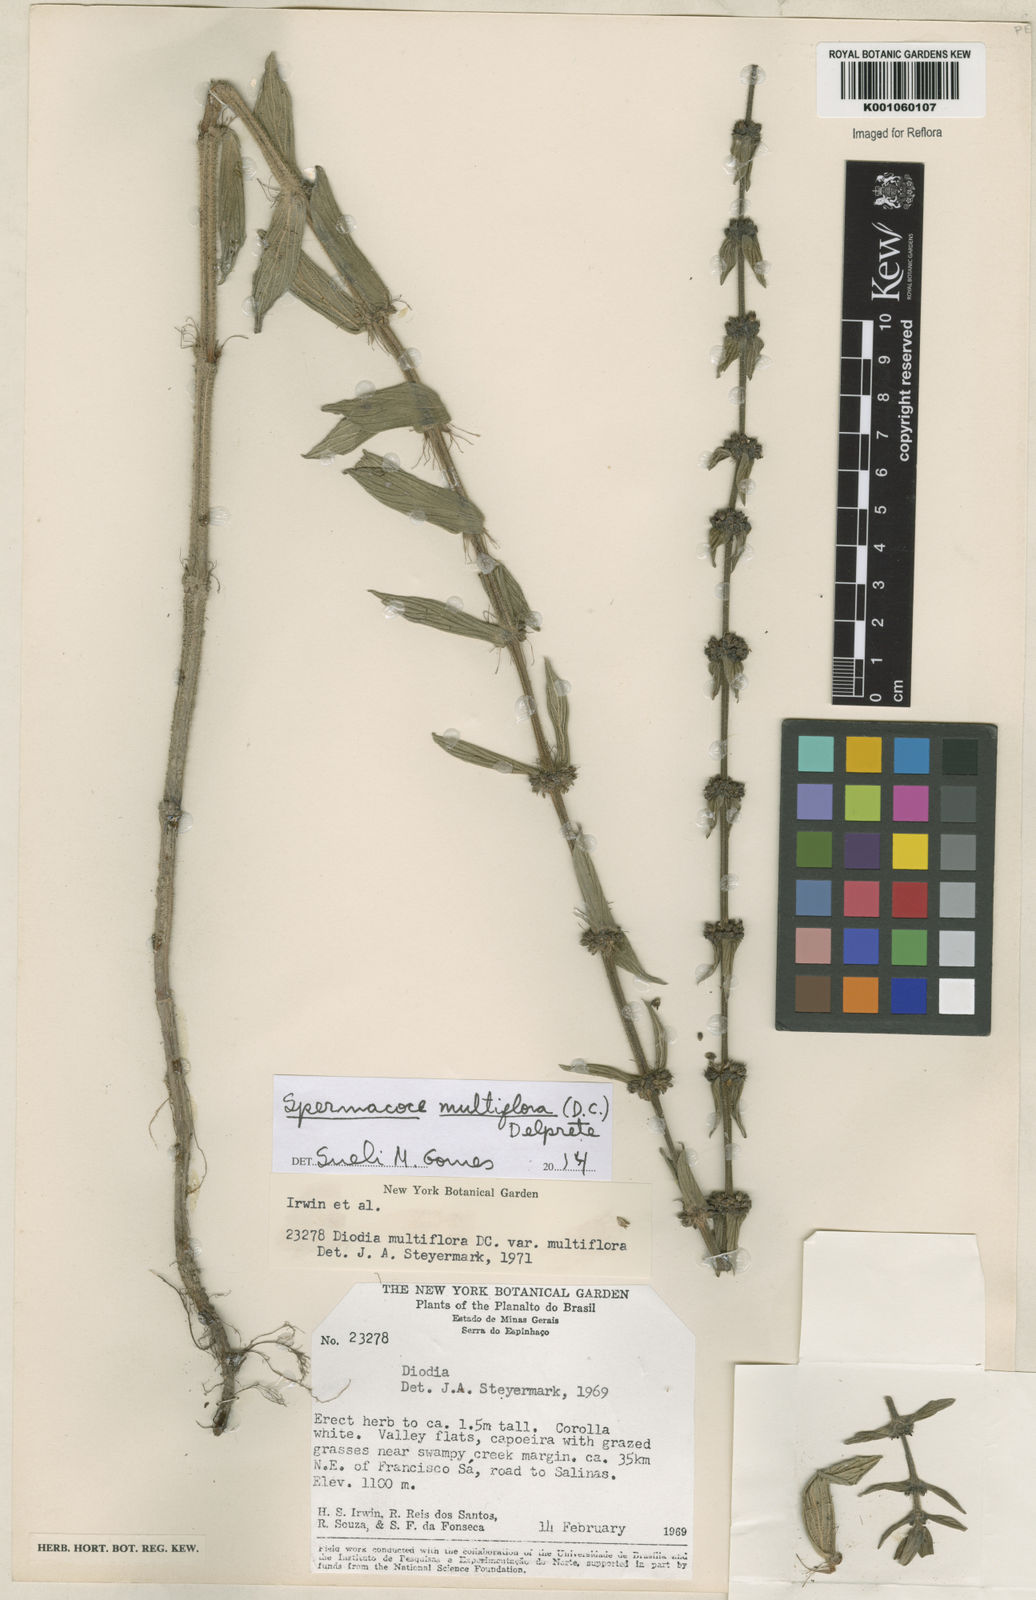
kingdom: Plantae
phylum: Tracheophyta
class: Magnoliopsida
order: Gentianales
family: Rubiaceae
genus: Spermacoce
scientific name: Spermacoce multiflora
